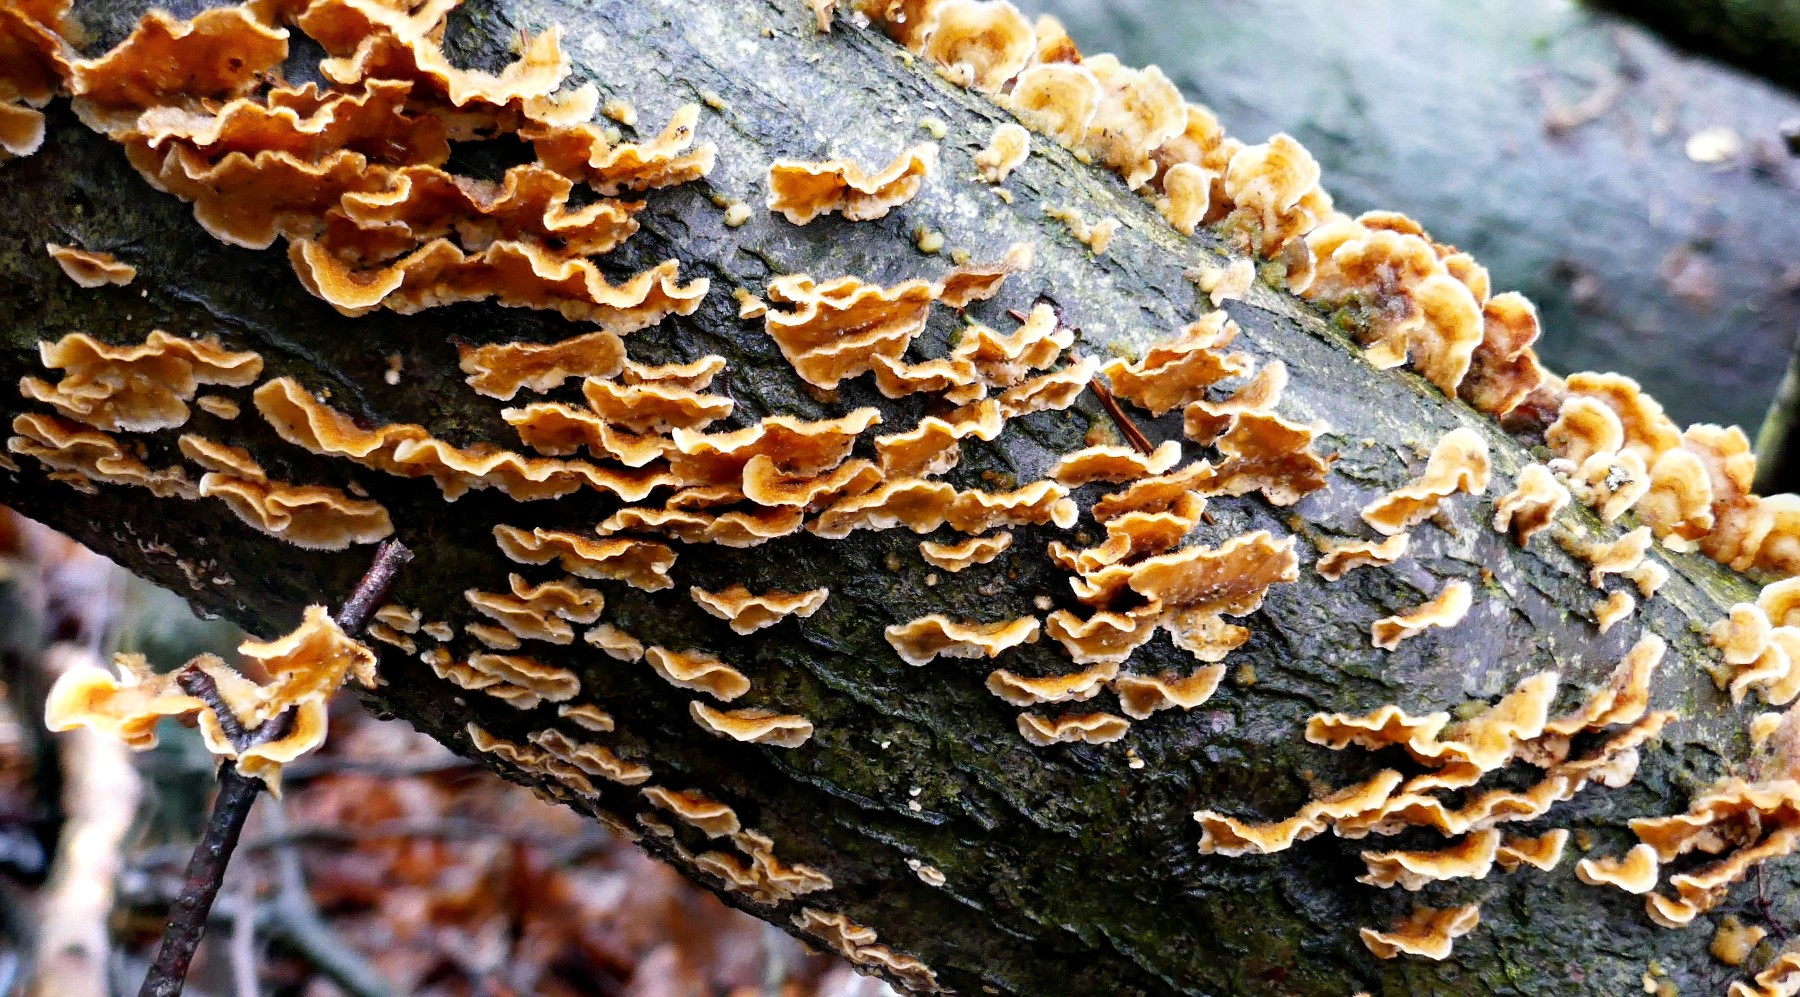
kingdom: Fungi
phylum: Basidiomycota
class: Agaricomycetes
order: Russulales
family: Stereaceae
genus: Stereum
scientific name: Stereum hirsutum
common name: håret lædersvamp
